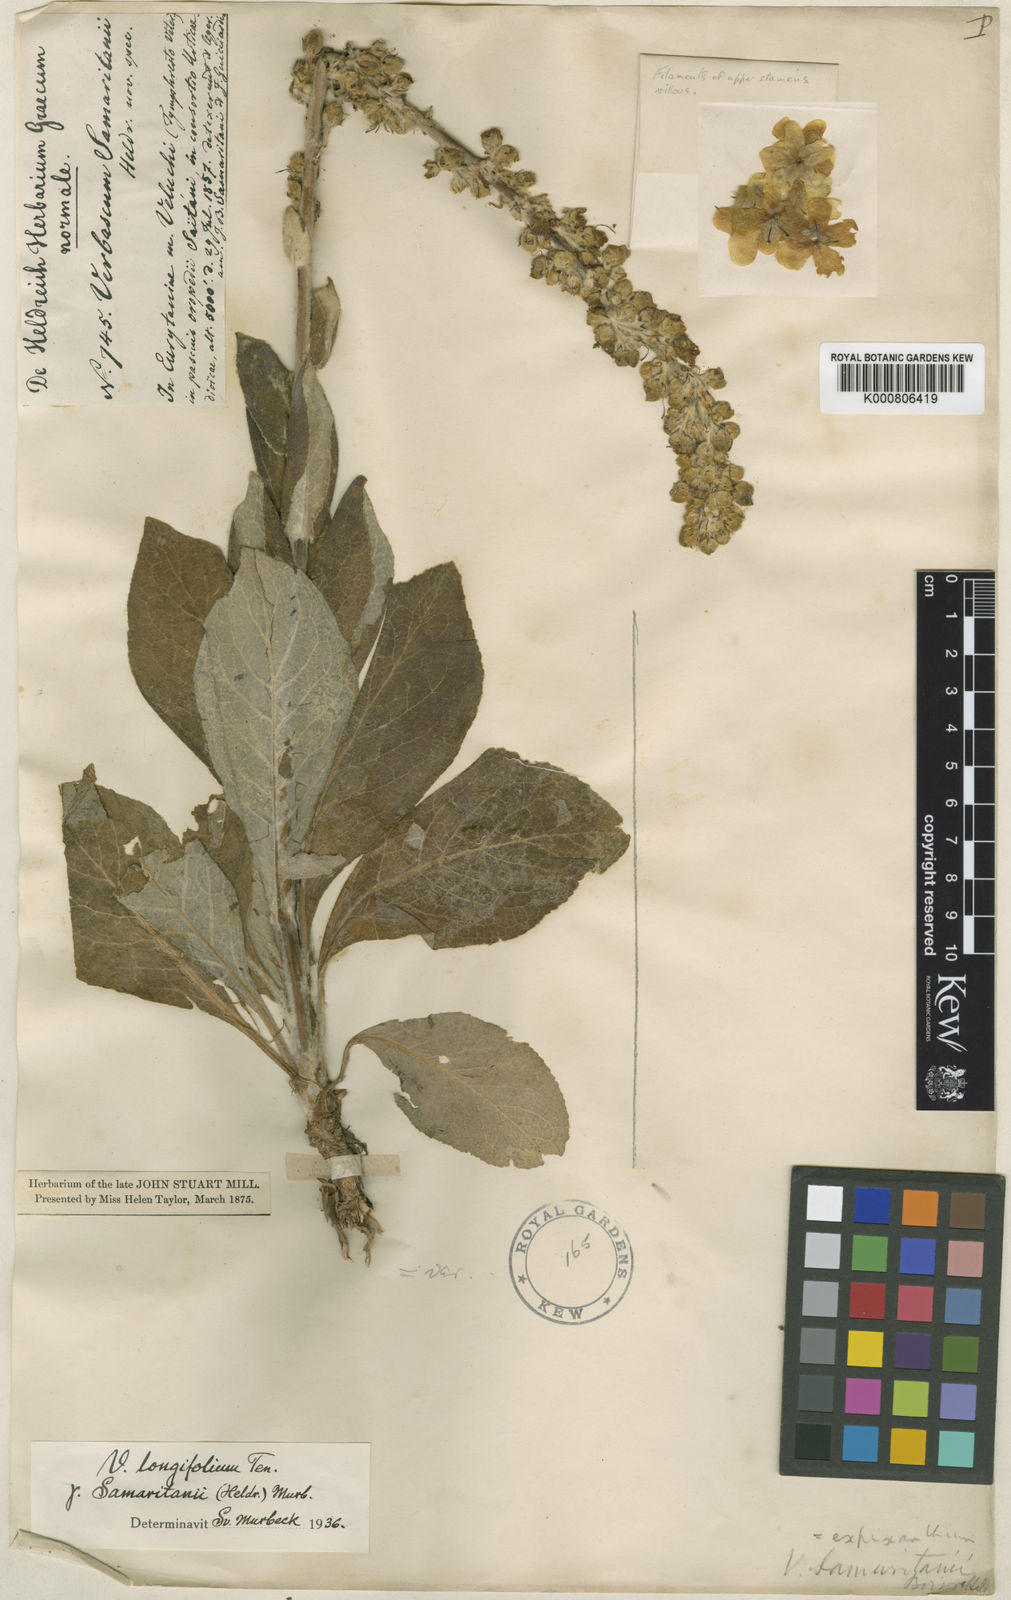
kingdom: Plantae
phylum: Tracheophyta
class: Magnoliopsida
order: Lamiales
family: Scrophulariaceae
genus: Verbascum
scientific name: Verbascum longifolium
